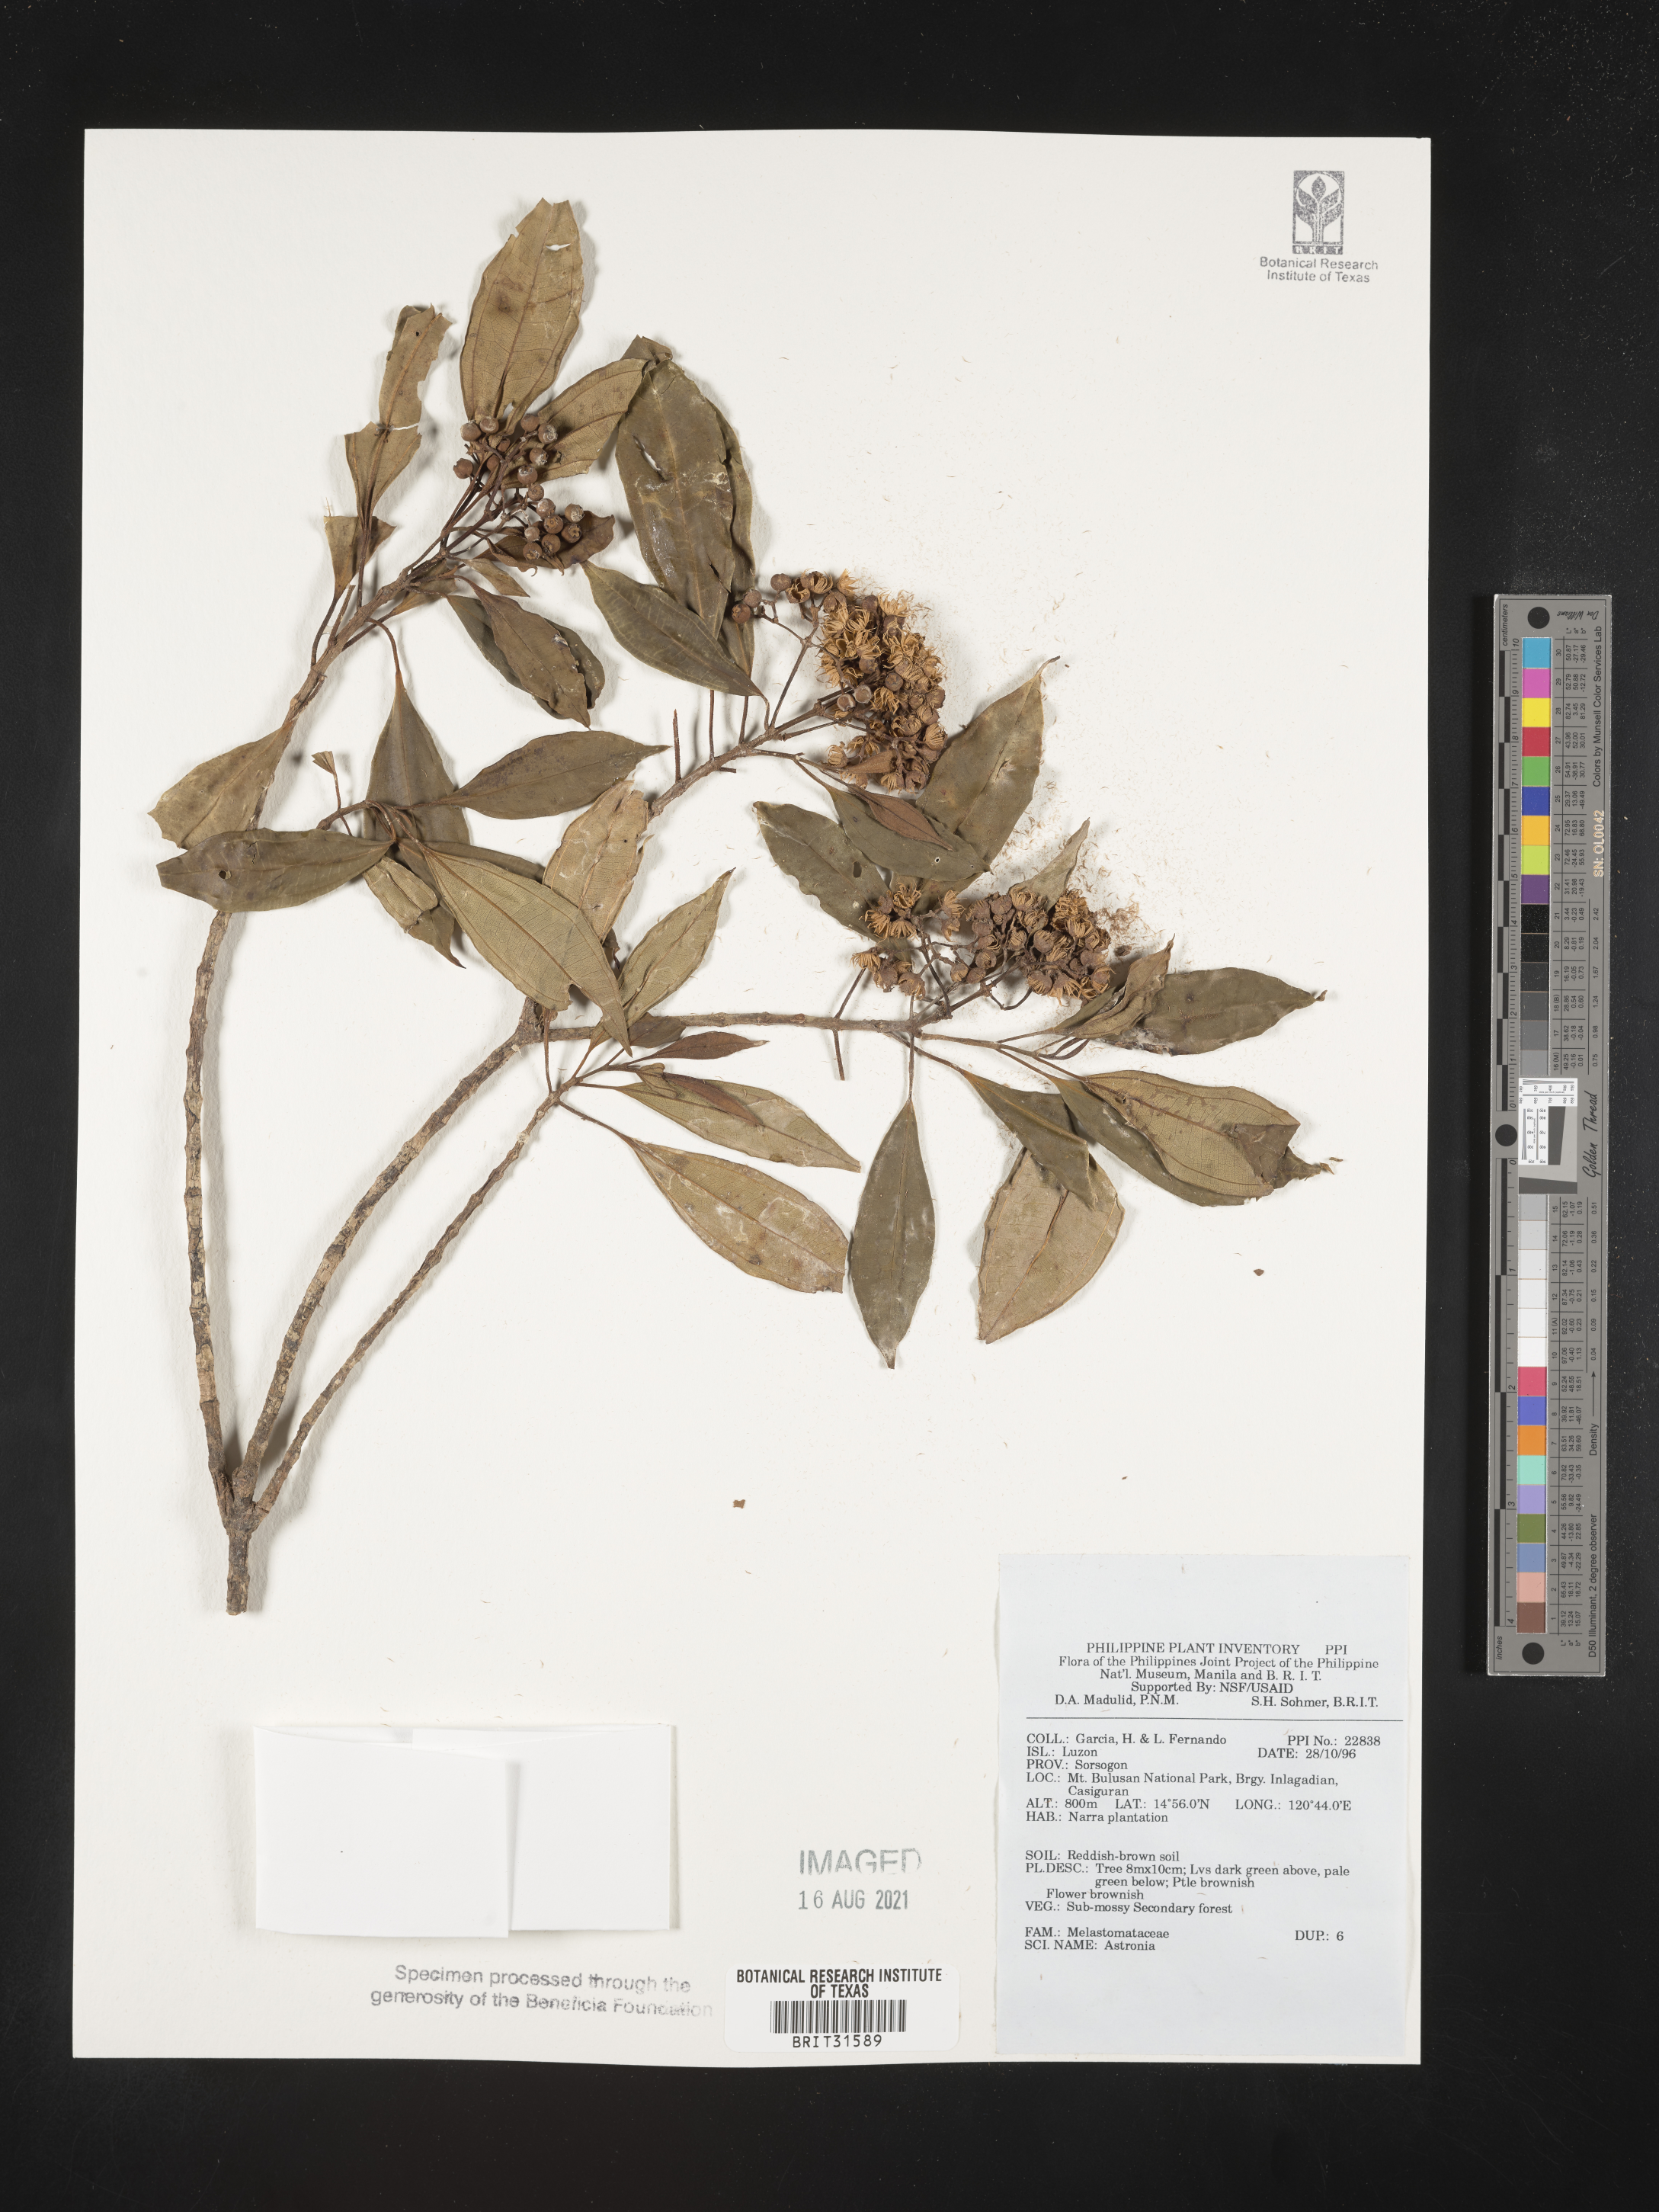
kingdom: Plantae
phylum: Tracheophyta
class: Magnoliopsida
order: Myrtales
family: Melastomataceae
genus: Astronia
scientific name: Astronia
